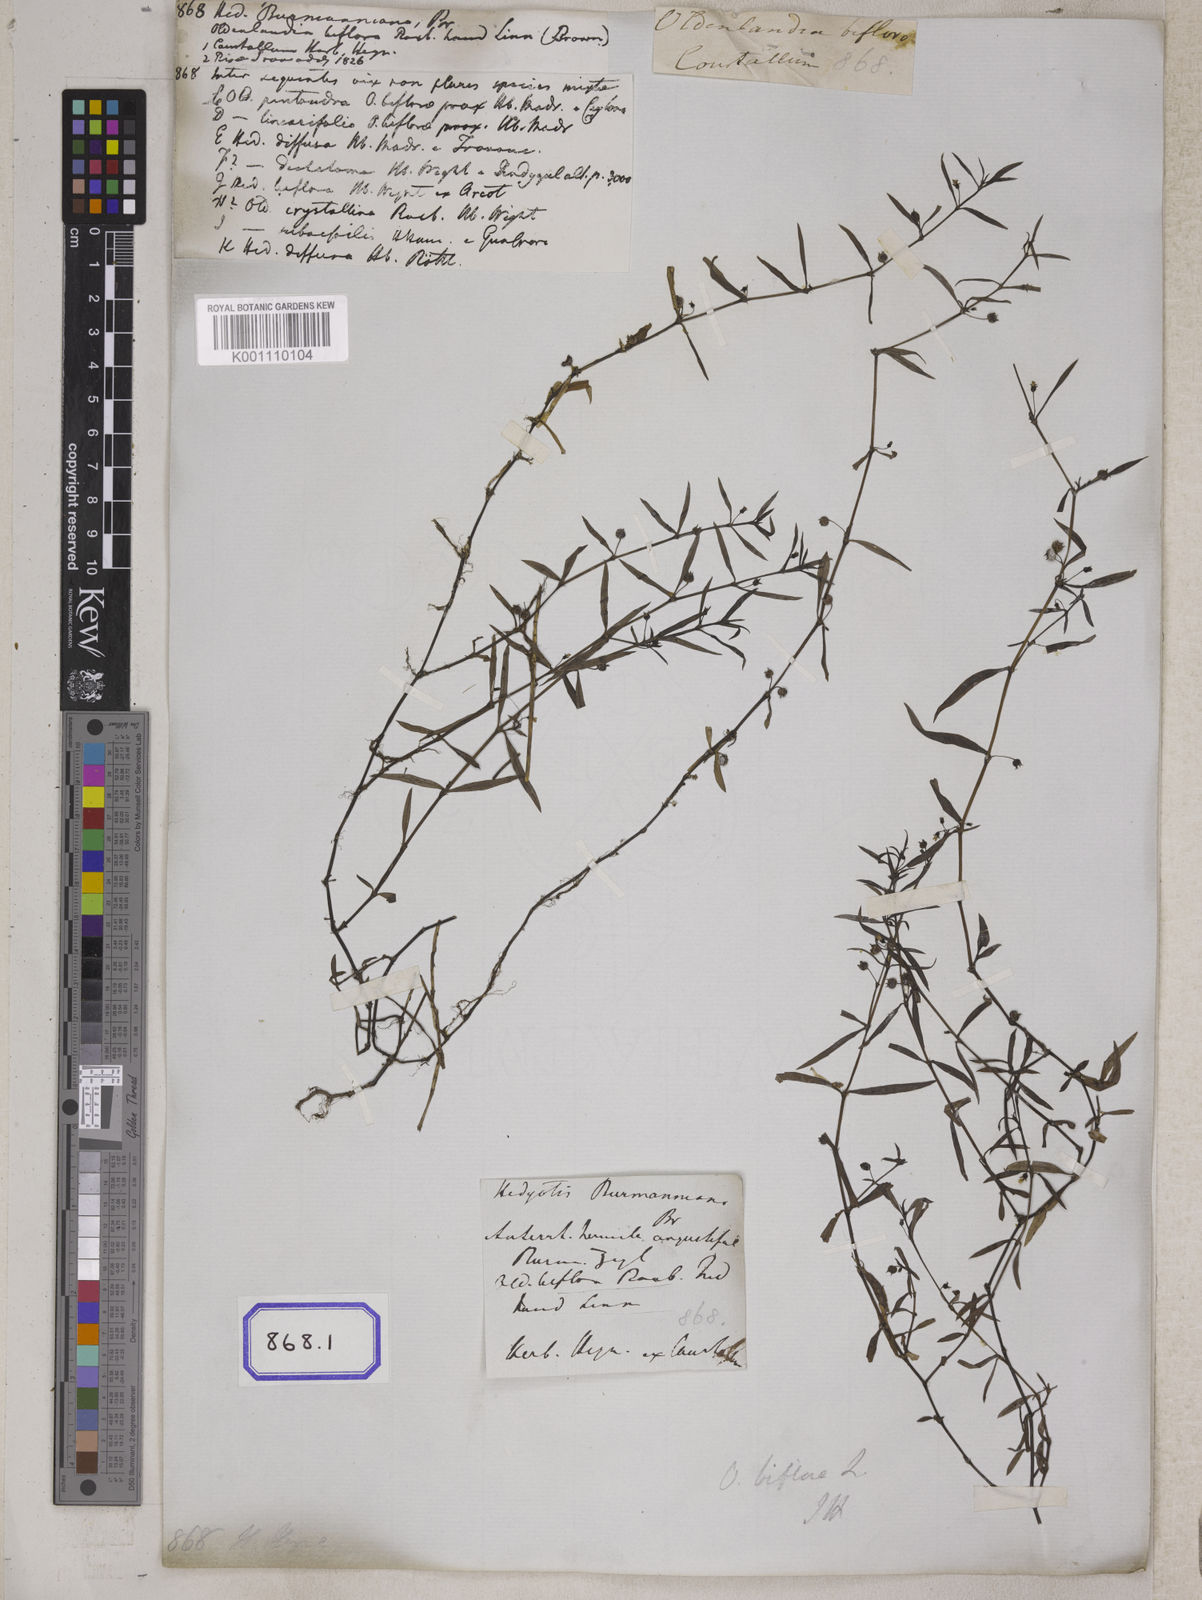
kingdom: Plantae
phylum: Tracheophyta
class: Magnoliopsida
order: Gentianales
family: Rubiaceae
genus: Hedyotis
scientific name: Hedyotis
